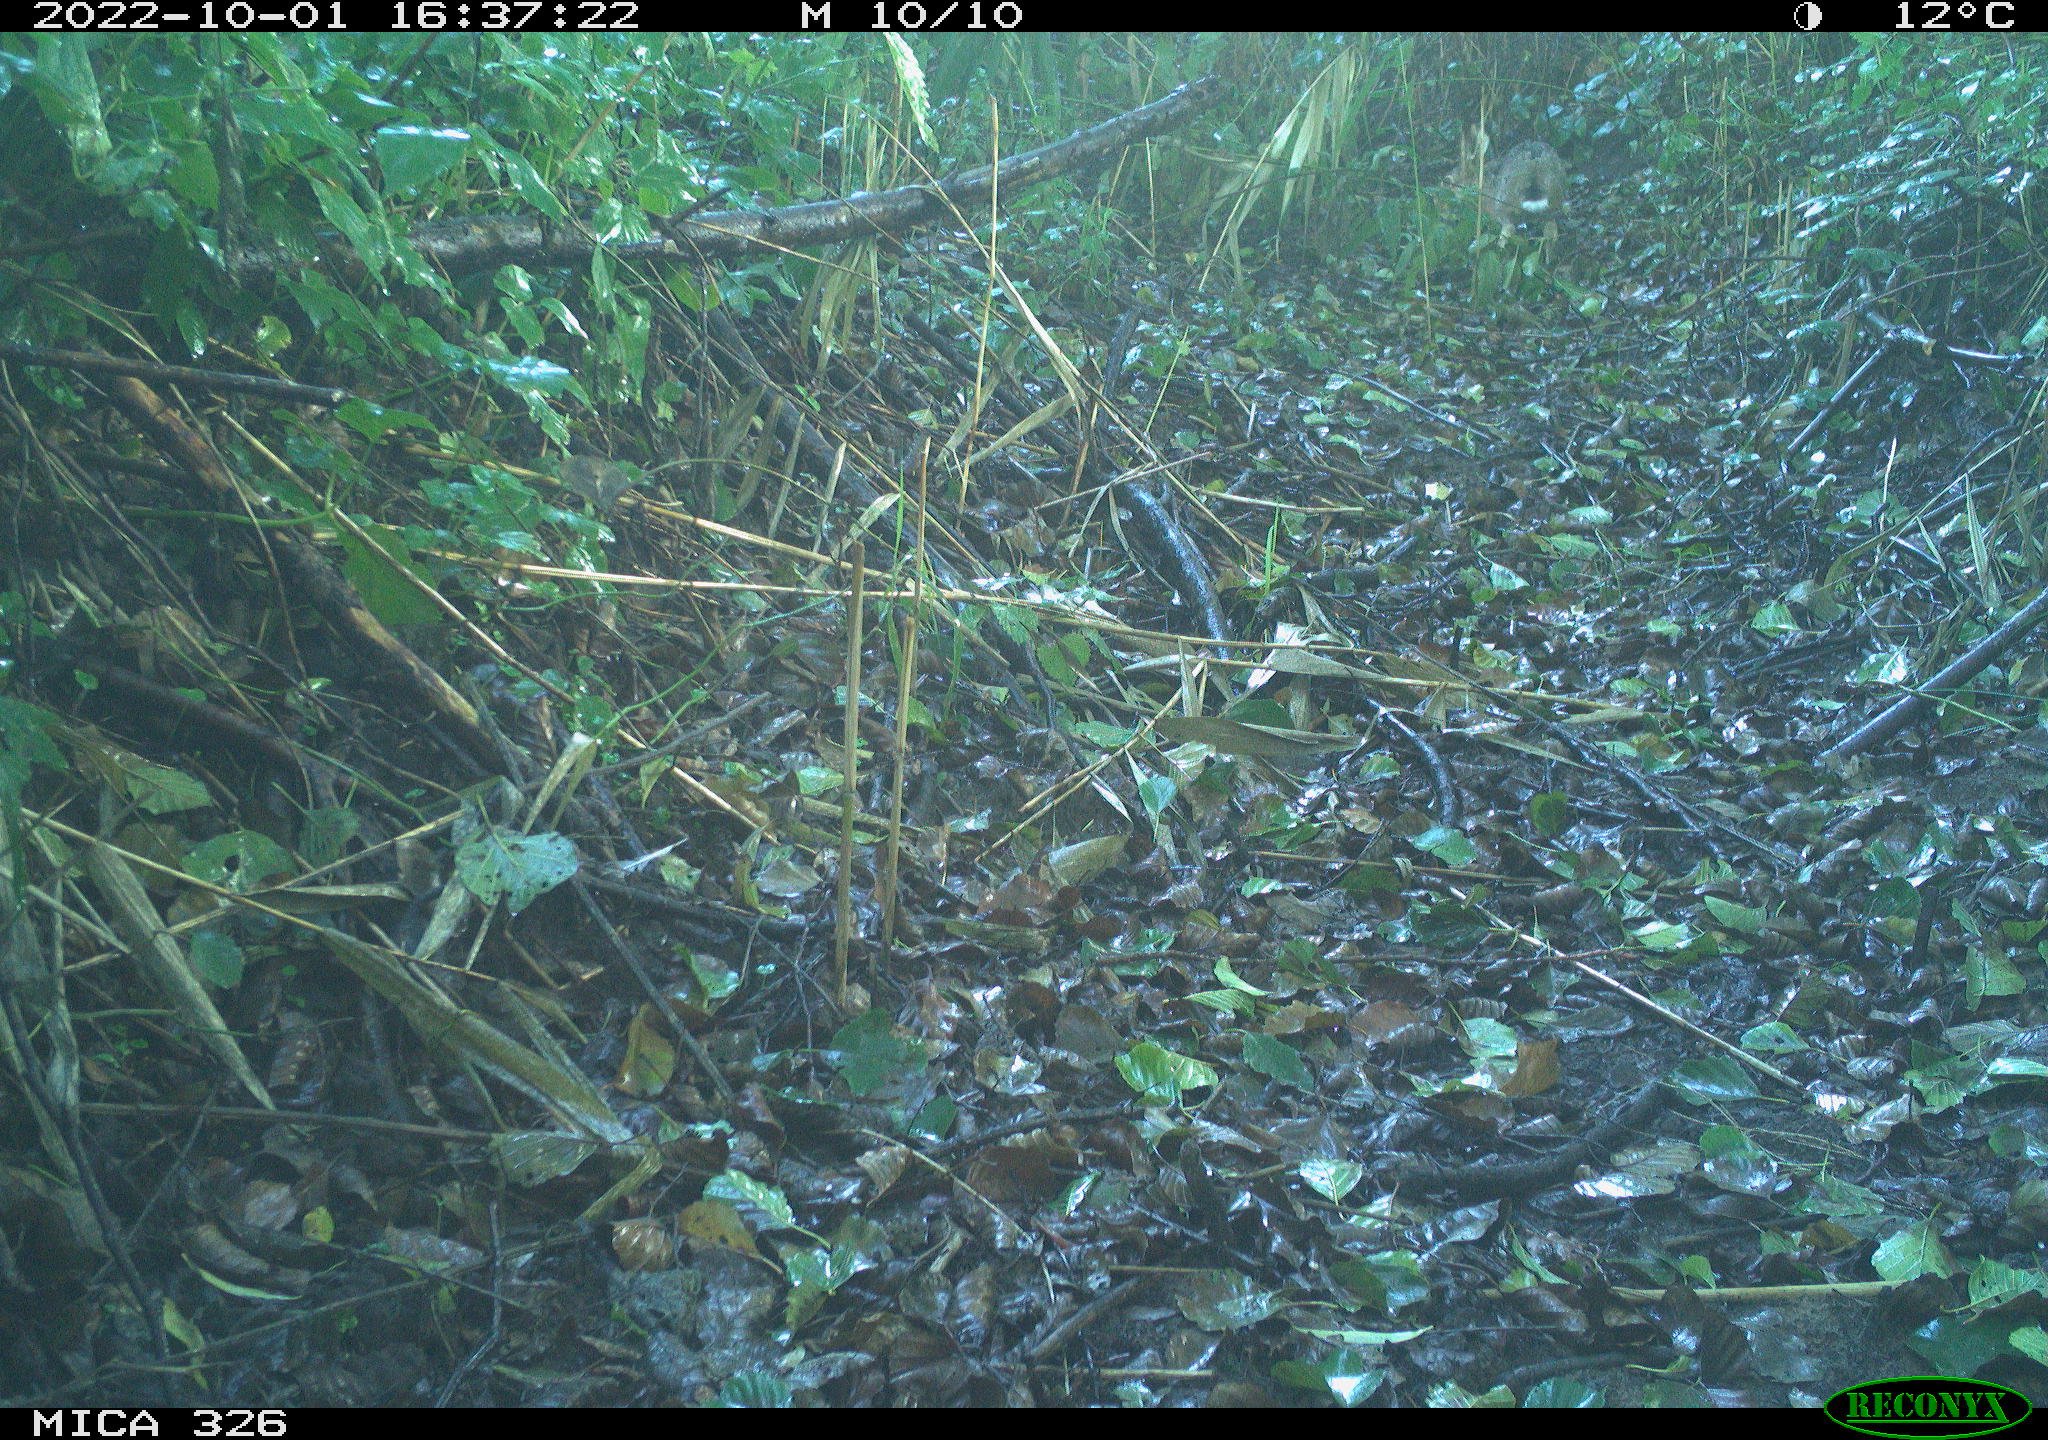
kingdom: Animalia
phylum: Chordata
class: Mammalia
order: Lagomorpha
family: Leporidae
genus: Lepus
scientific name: Lepus europaeus
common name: European hare
